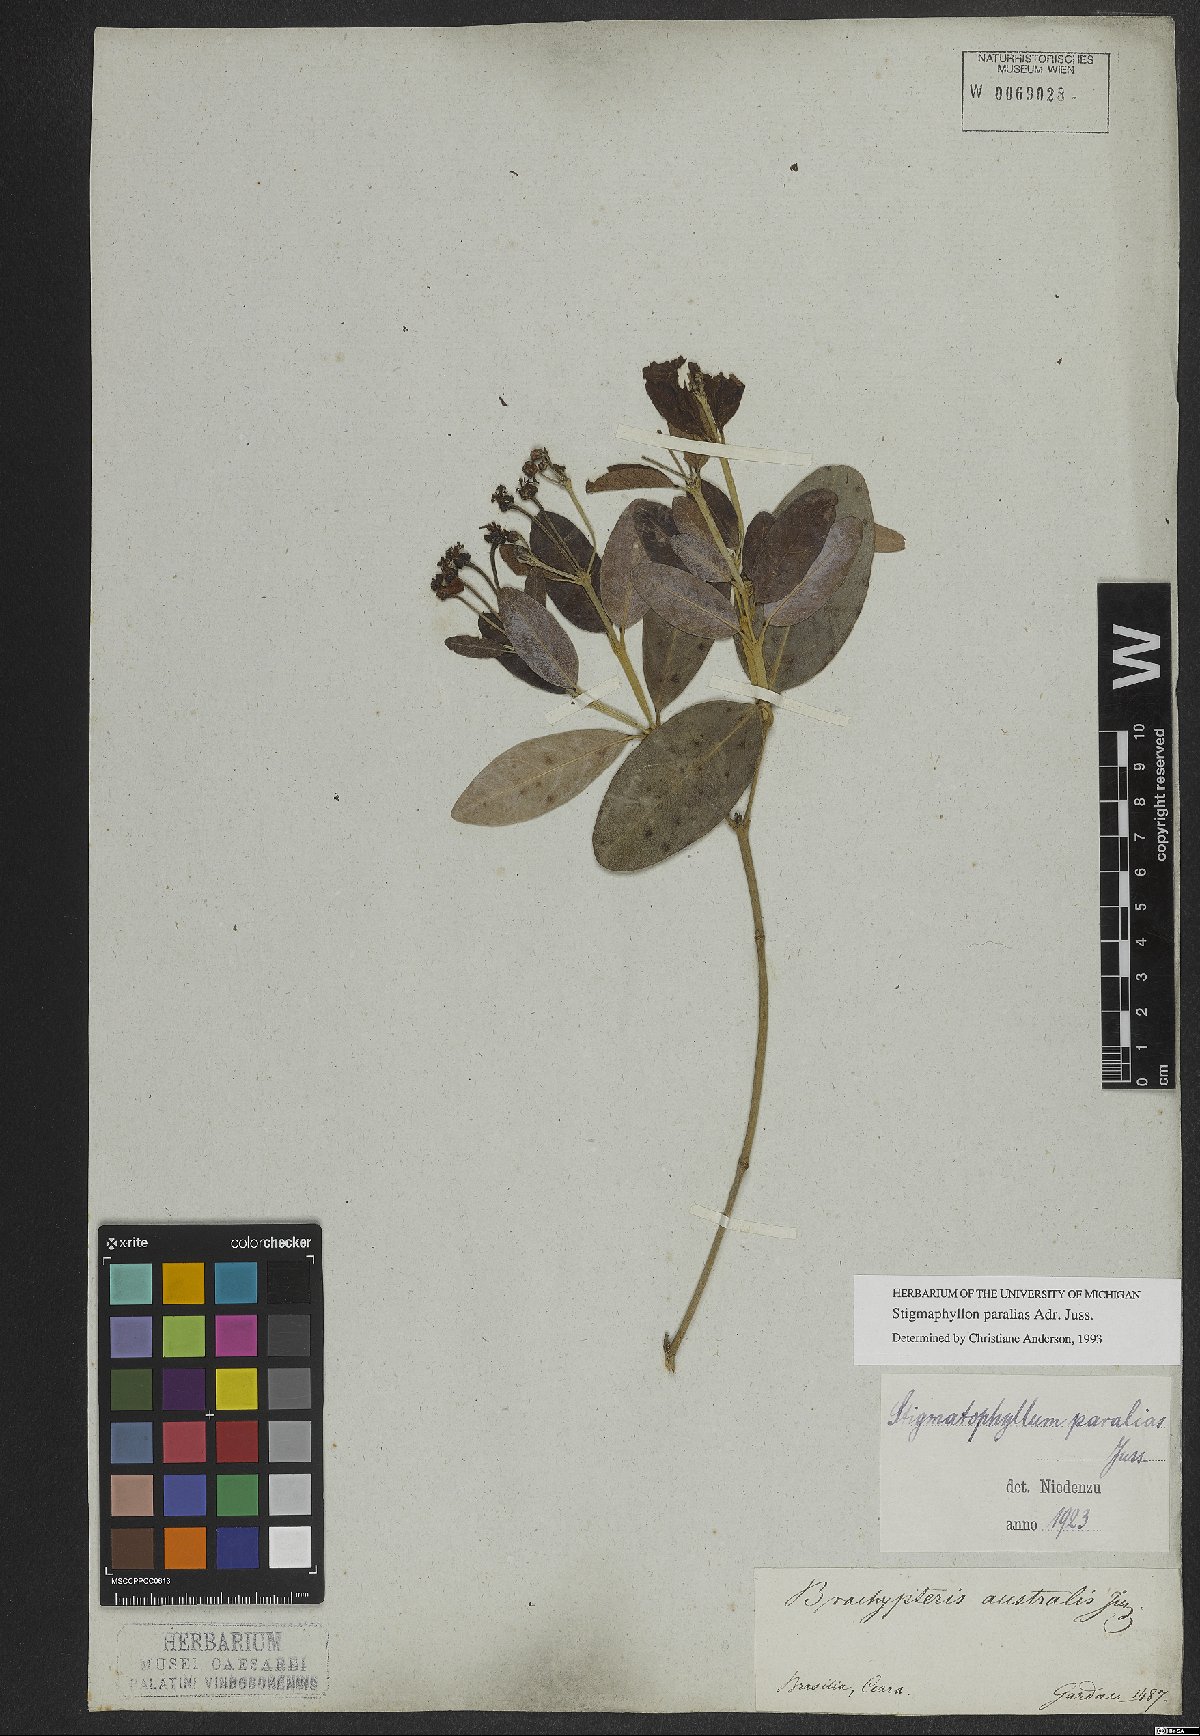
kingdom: Plantae
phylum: Tracheophyta
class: Magnoliopsida
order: Malpighiales
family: Malpighiaceae
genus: Stigmaphyllon
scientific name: Stigmaphyllon paralias
